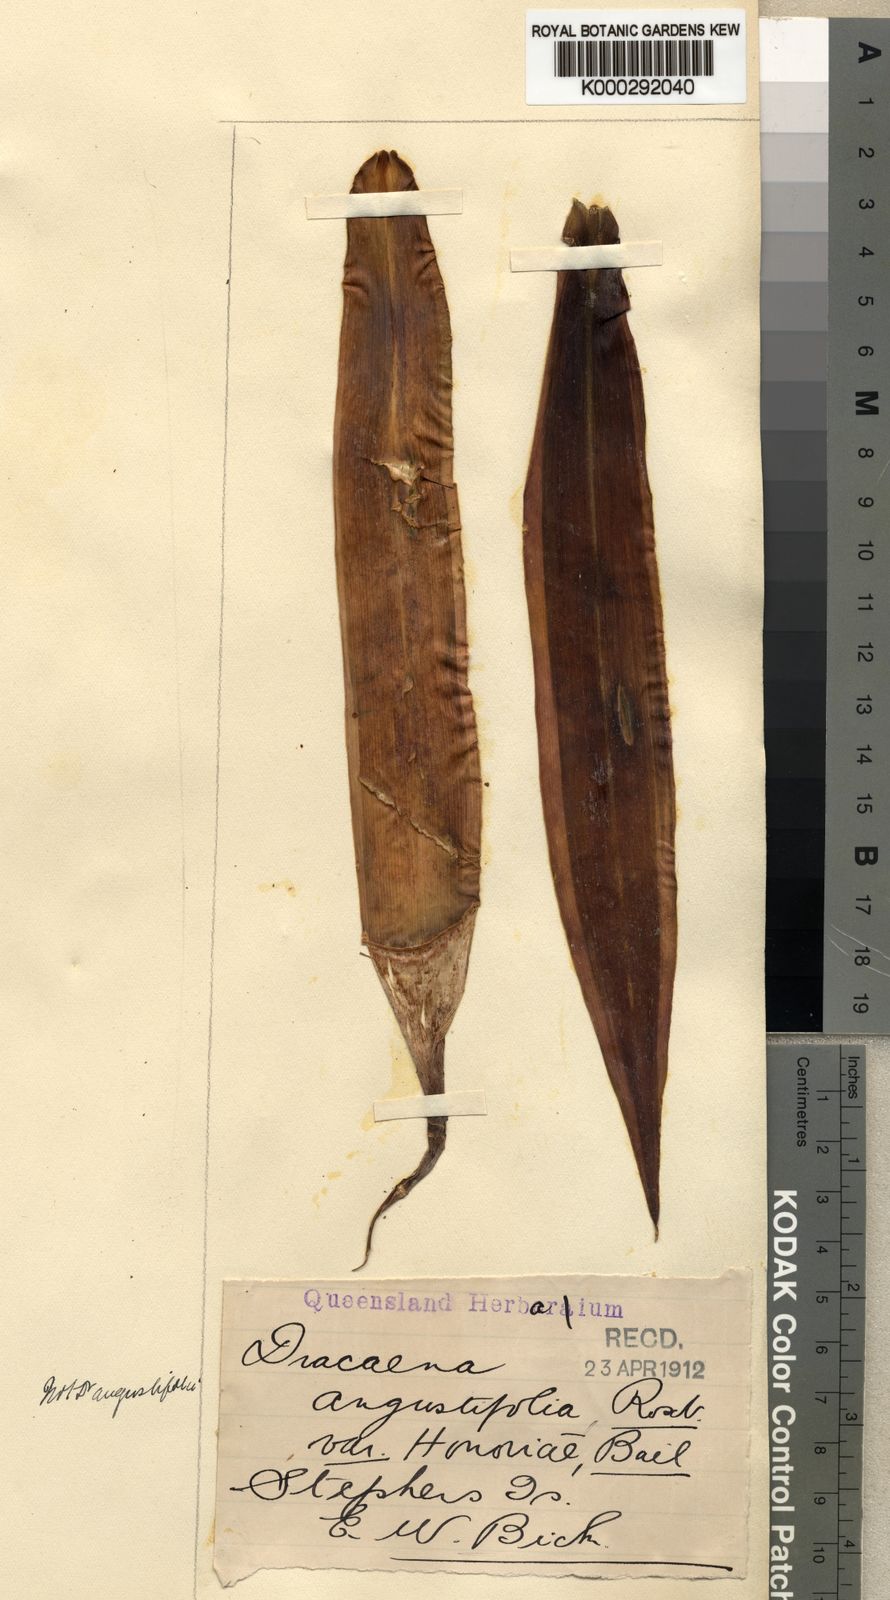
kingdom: Plantae
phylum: Tracheophyta
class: Liliopsida
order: Asparagales
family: Asparagaceae
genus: Dracaena
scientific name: Dracaena angustifolia
